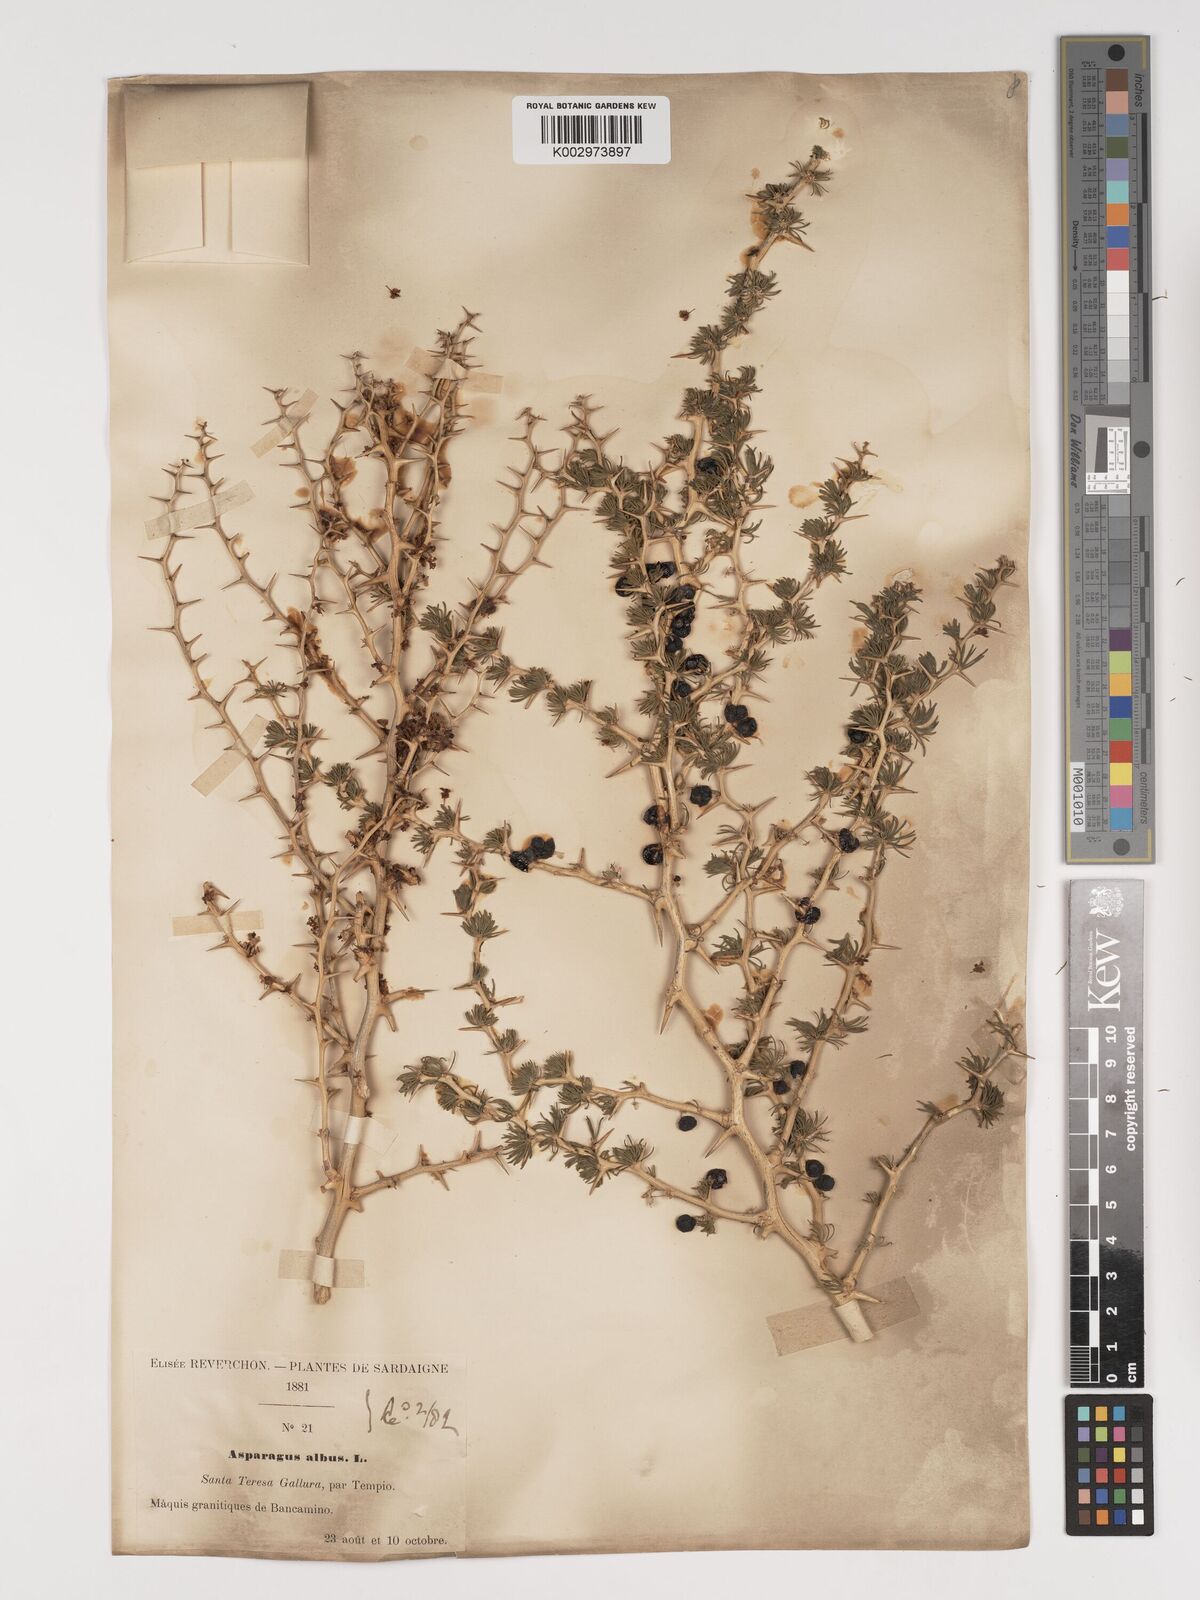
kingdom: Plantae
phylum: Tracheophyta
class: Liliopsida
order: Asparagales
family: Asparagaceae
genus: Asparagus
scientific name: Asparagus albus
